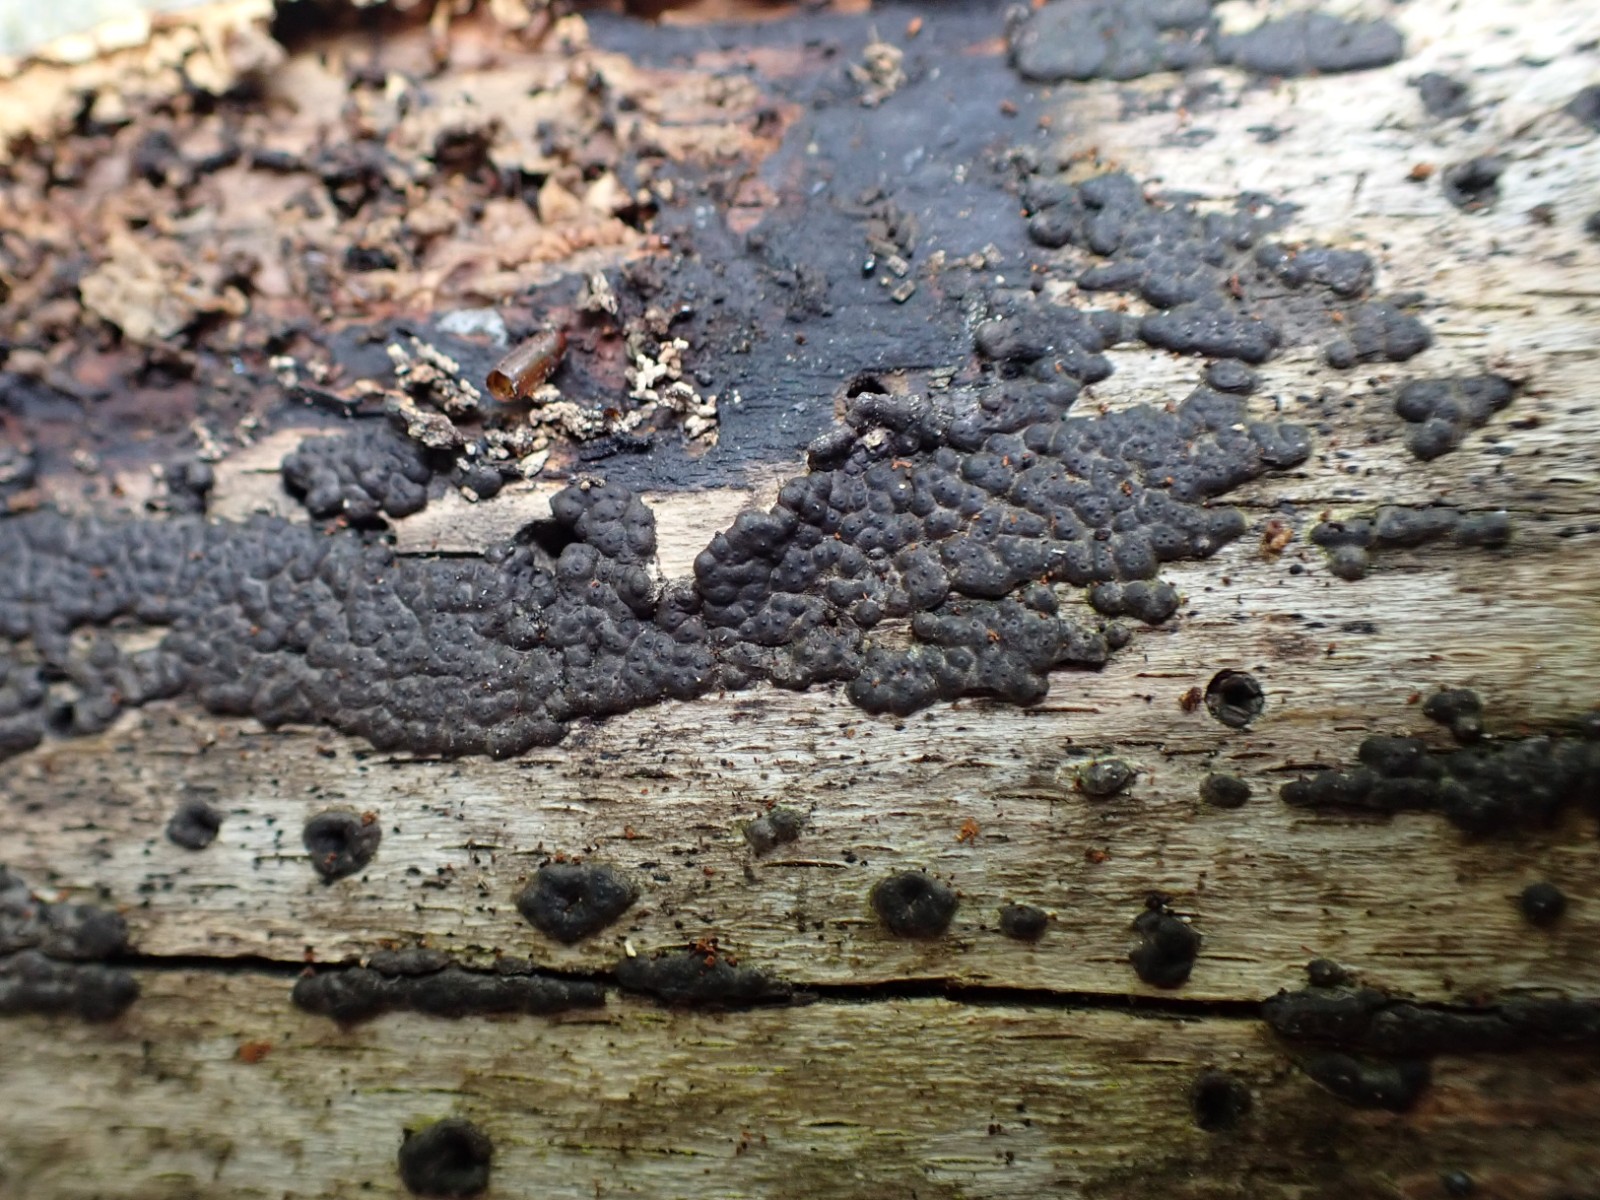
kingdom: Fungi
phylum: Ascomycota
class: Sordariomycetes
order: Xylariales
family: Xylariaceae
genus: Nemania
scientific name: Nemania
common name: kuldyne
